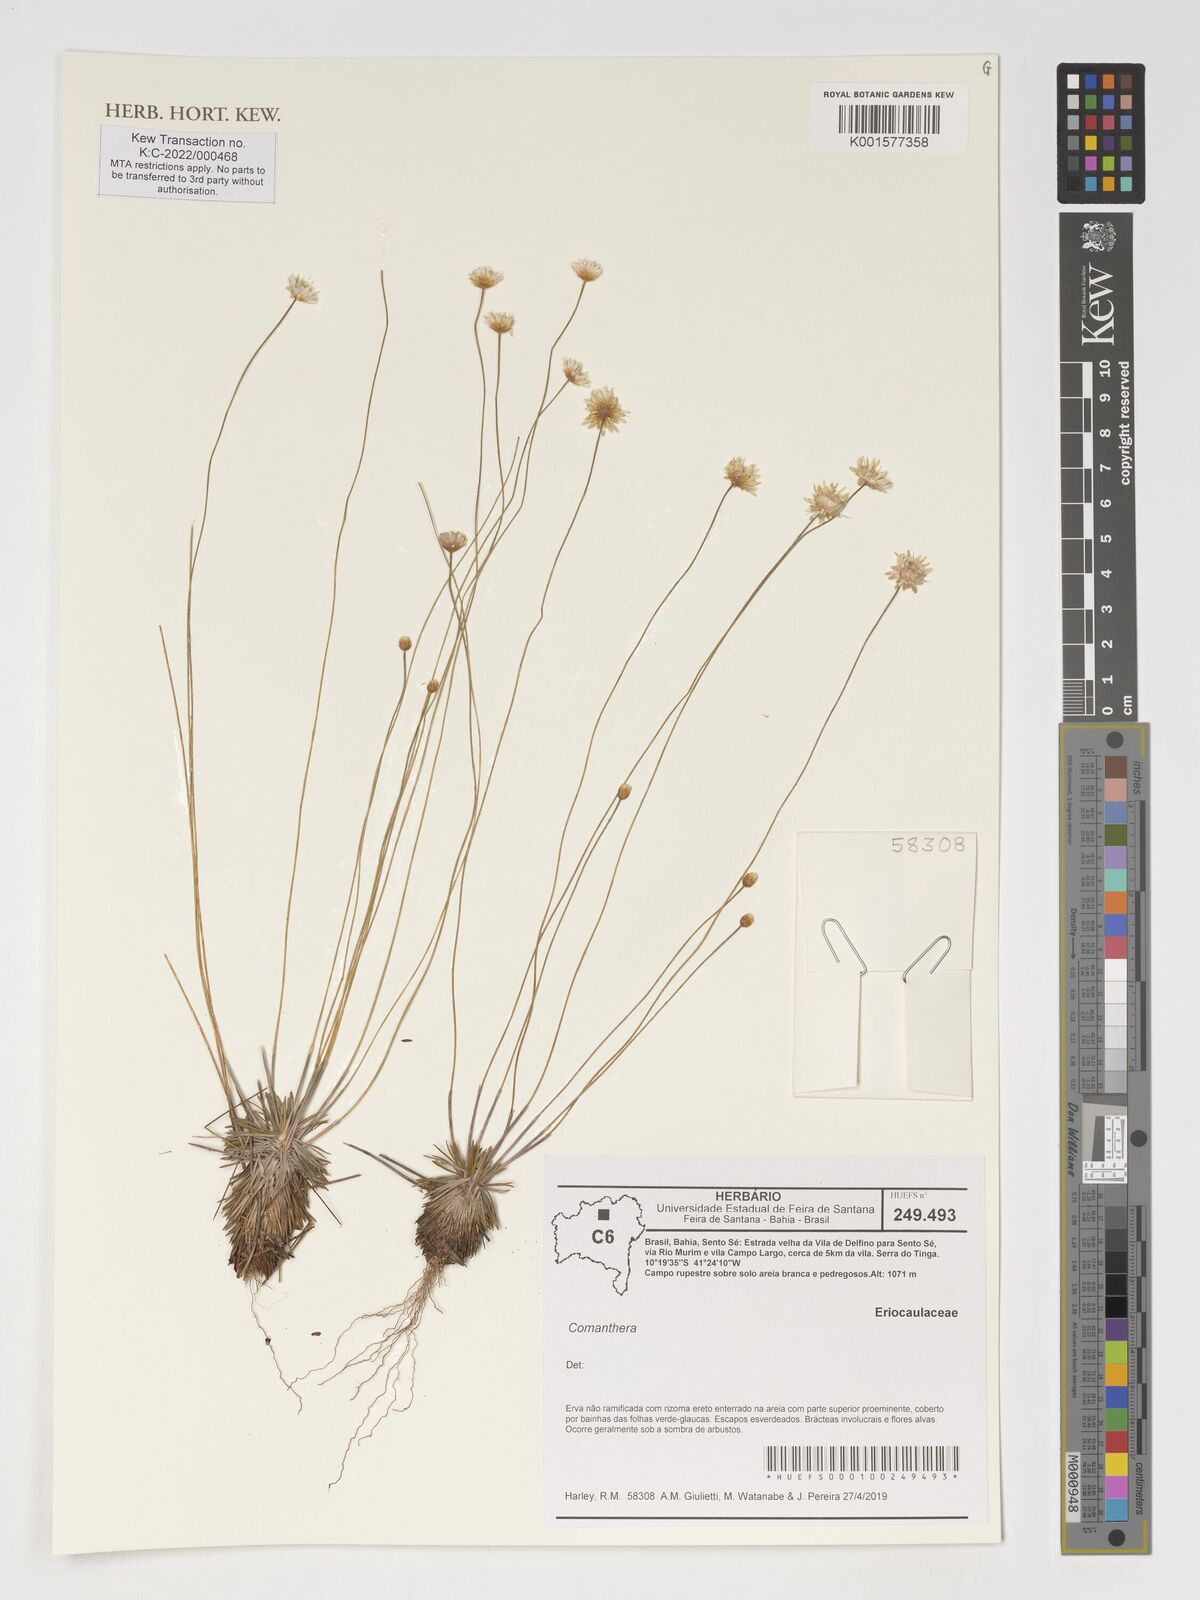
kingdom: Plantae
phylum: Tracheophyta
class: Liliopsida
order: Poales
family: Eriocaulaceae
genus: Comanthera
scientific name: Comanthera
